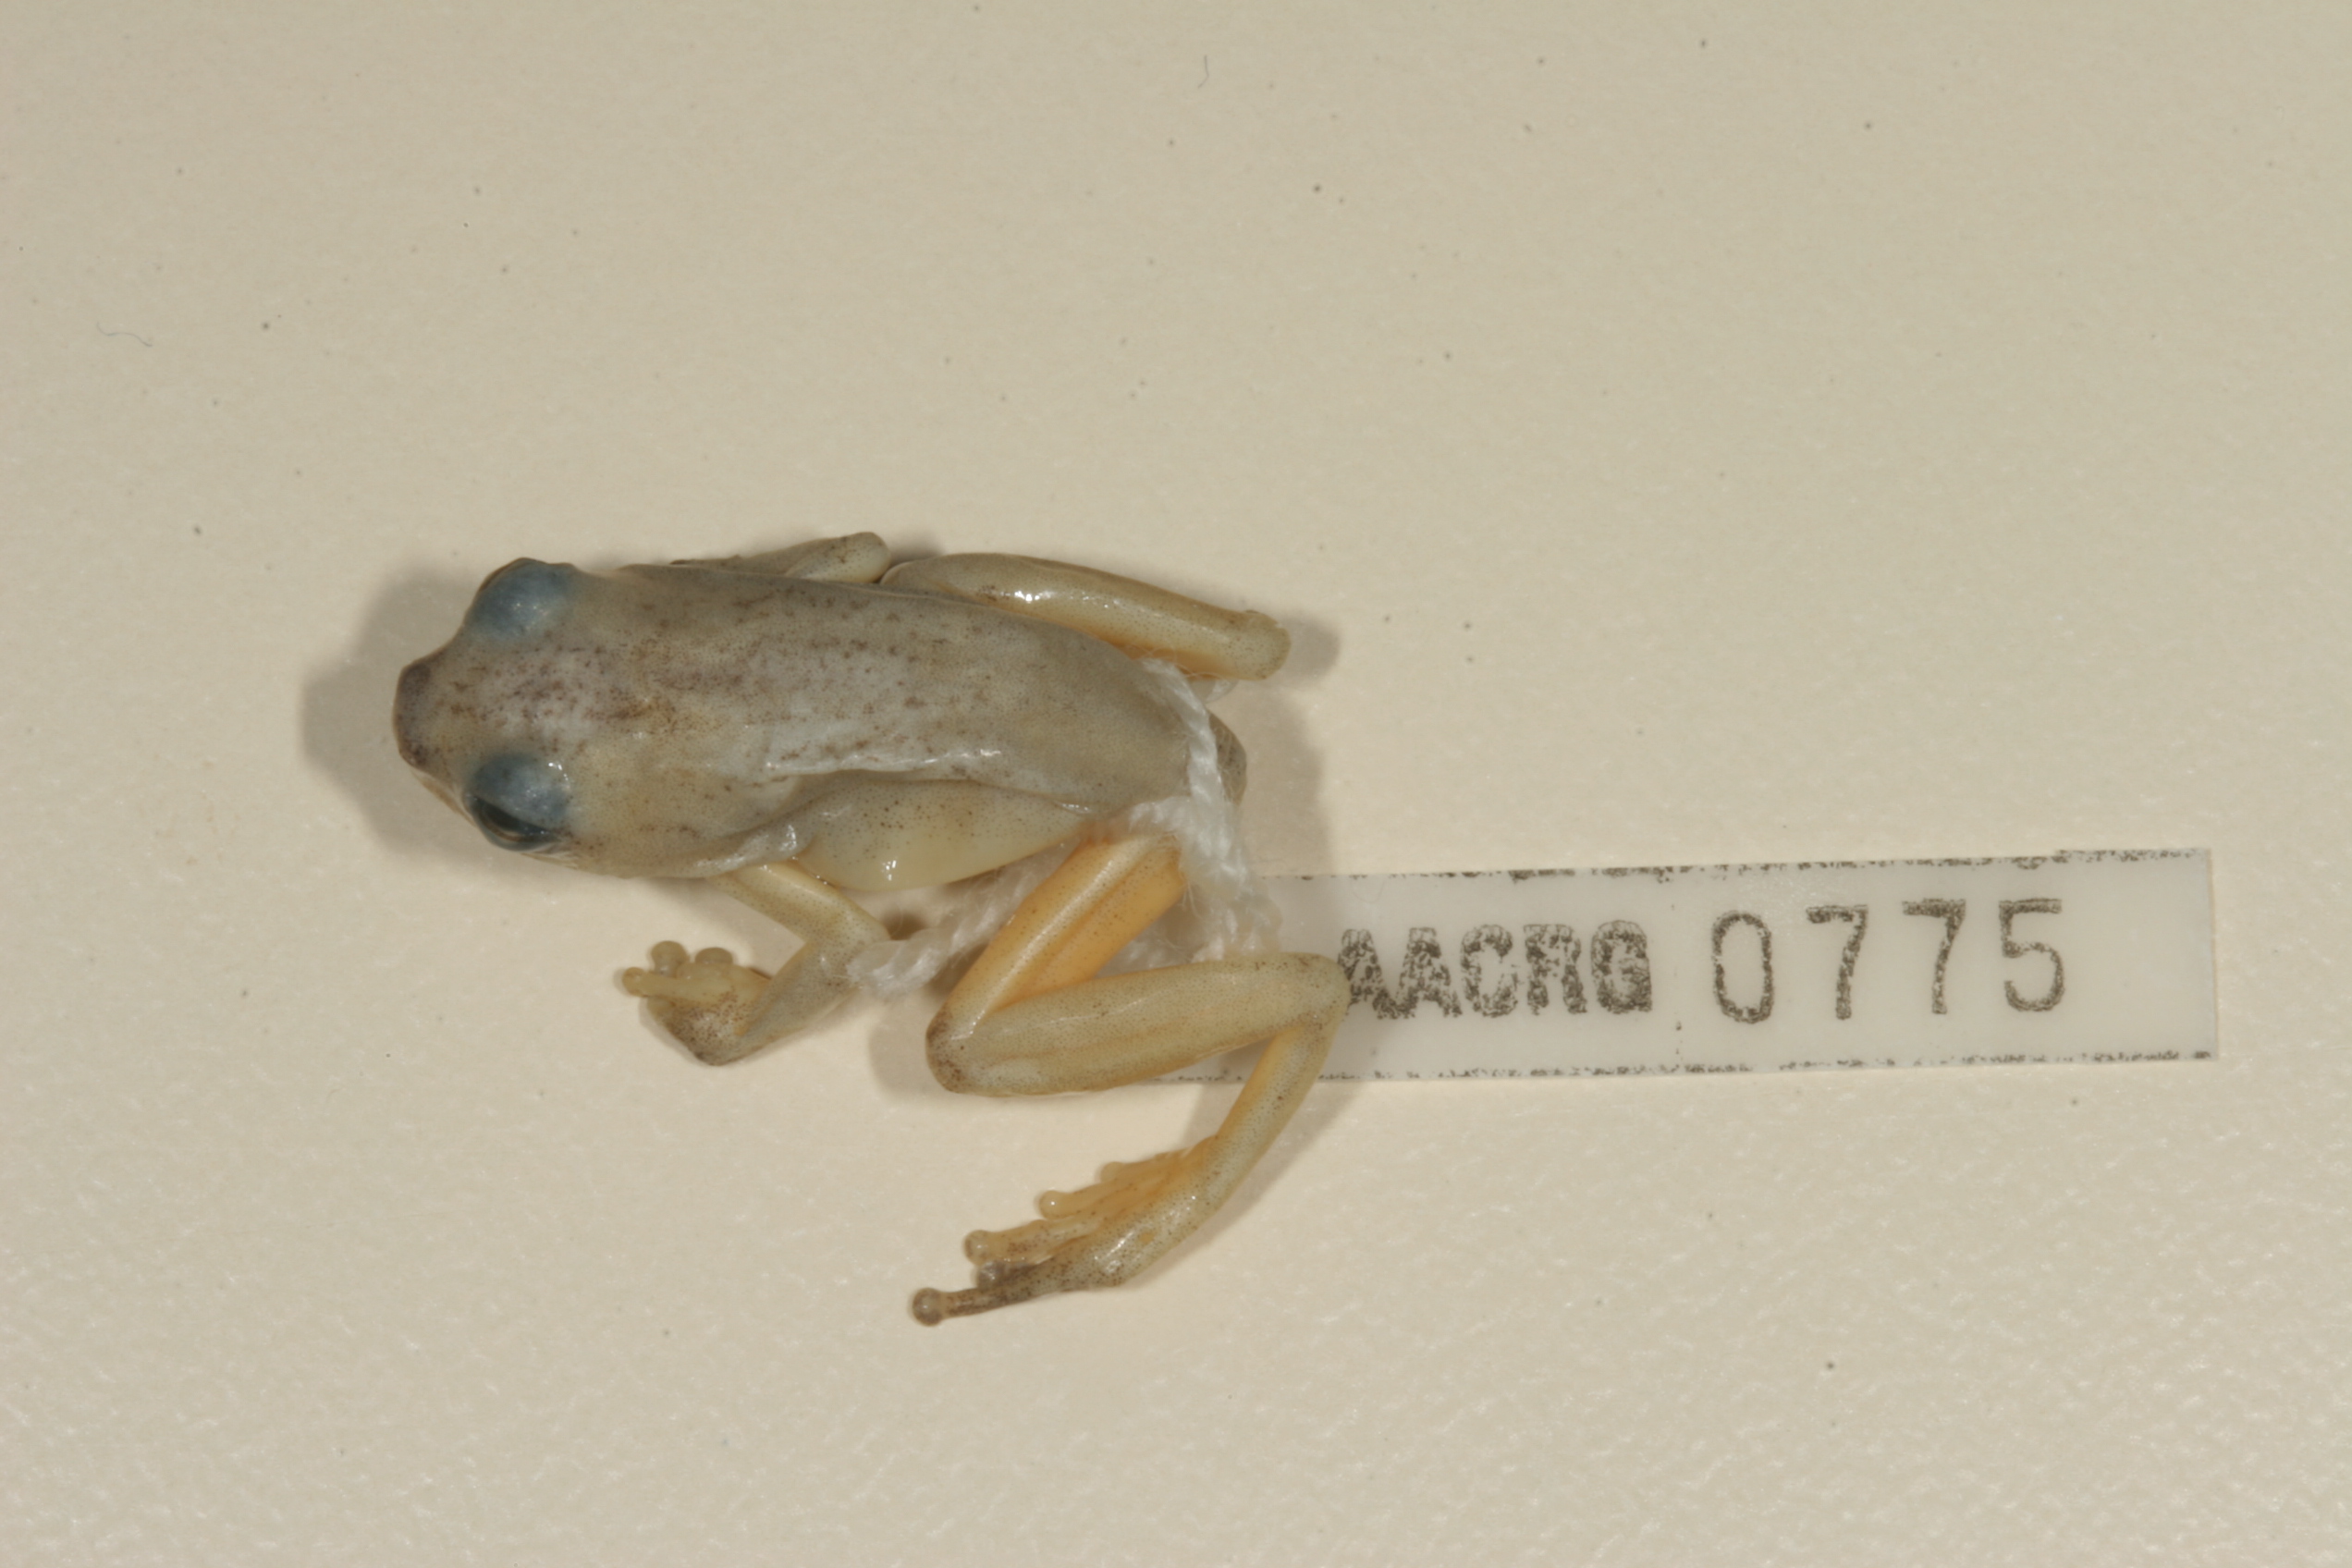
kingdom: Animalia
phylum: Chordata
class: Amphibia
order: Anura
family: Hyperoliidae
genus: Hyperolius
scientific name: Hyperolius marmoratus
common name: Painted reed frog
